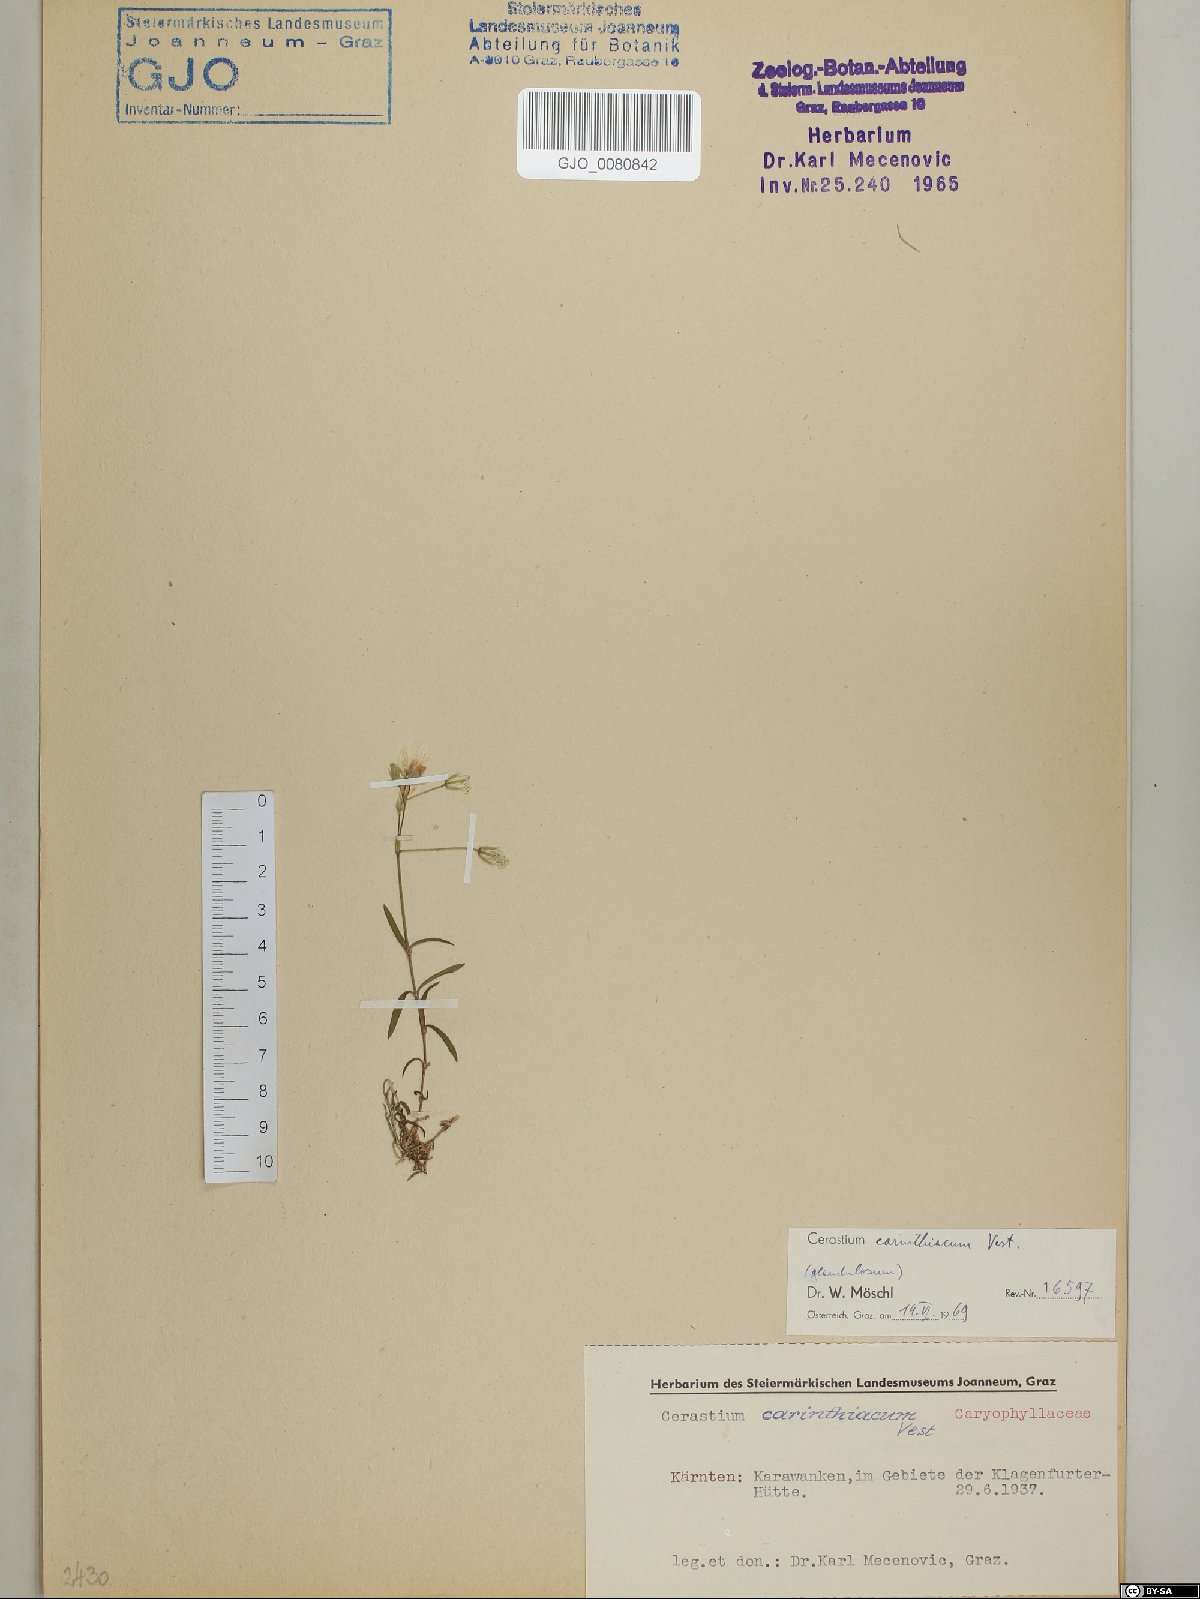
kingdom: Plantae
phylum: Tracheophyta
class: Magnoliopsida
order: Caryophyllales
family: Caryophyllaceae
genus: Cerastium
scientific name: Cerastium carinthiacum
